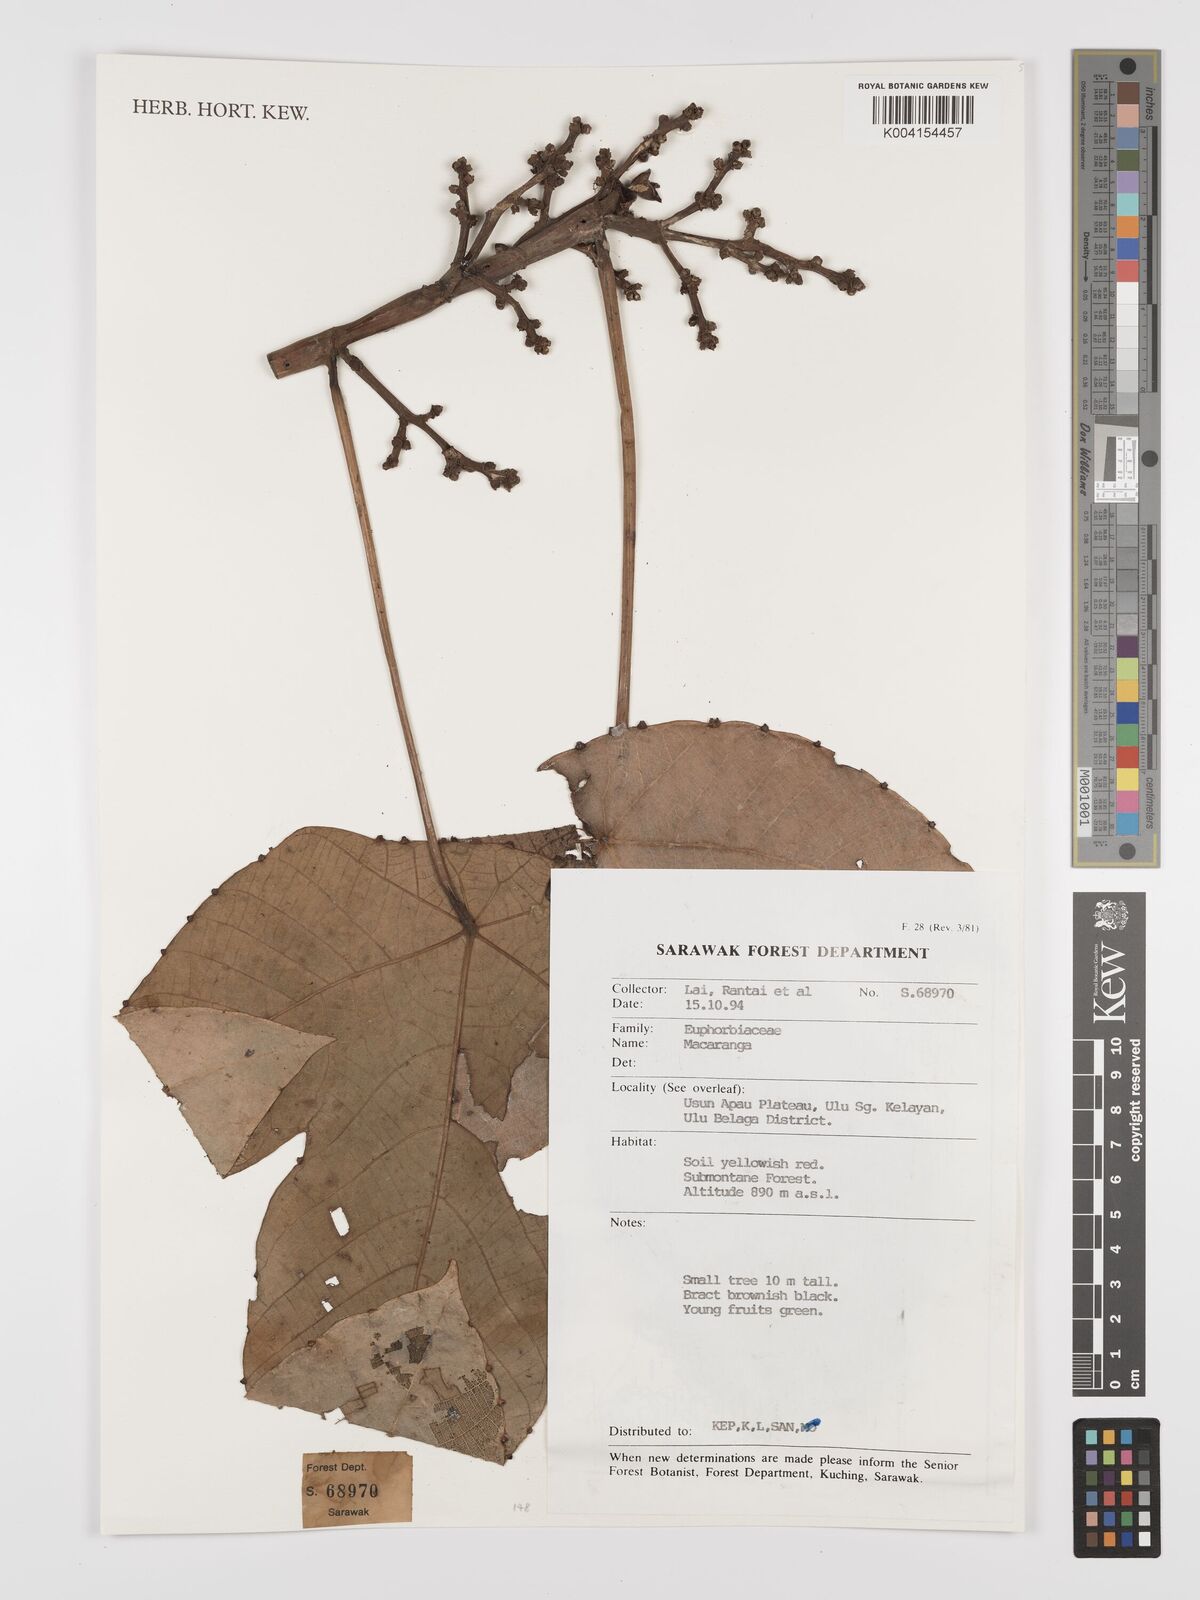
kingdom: Plantae
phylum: Tracheophyta
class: Magnoliopsida
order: Malpighiales
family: Euphorbiaceae
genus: Macaranga
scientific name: Macaranga
